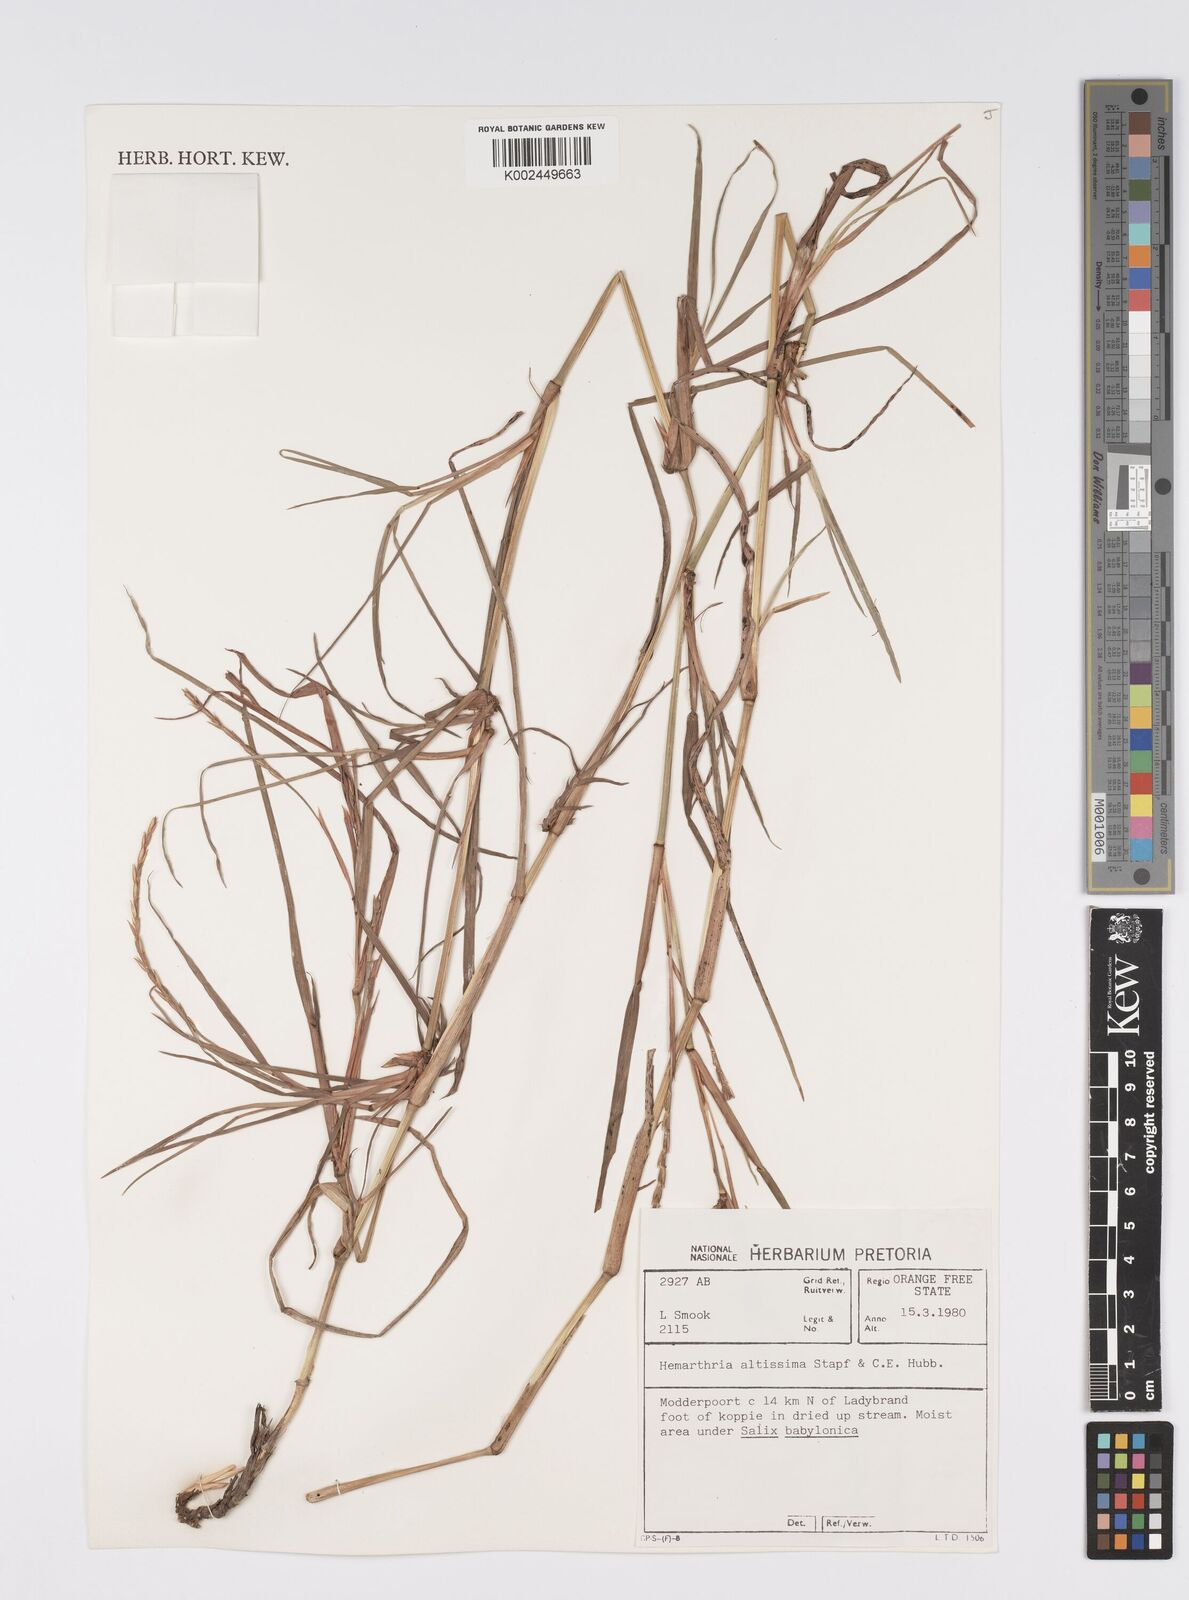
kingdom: Plantae
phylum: Tracheophyta
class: Liliopsida
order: Poales
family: Poaceae
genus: Hemarthria
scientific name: Hemarthria altissima
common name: African jointgrass
